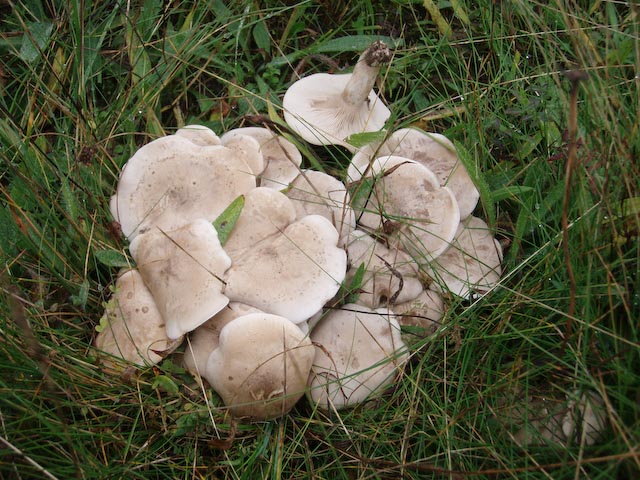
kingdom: Fungi
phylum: Basidiomycota
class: Agaricomycetes
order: Agaricales
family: Tricholomataceae
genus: Lepista
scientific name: Lepista panaeolus
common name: marmoreret hekseringshat
